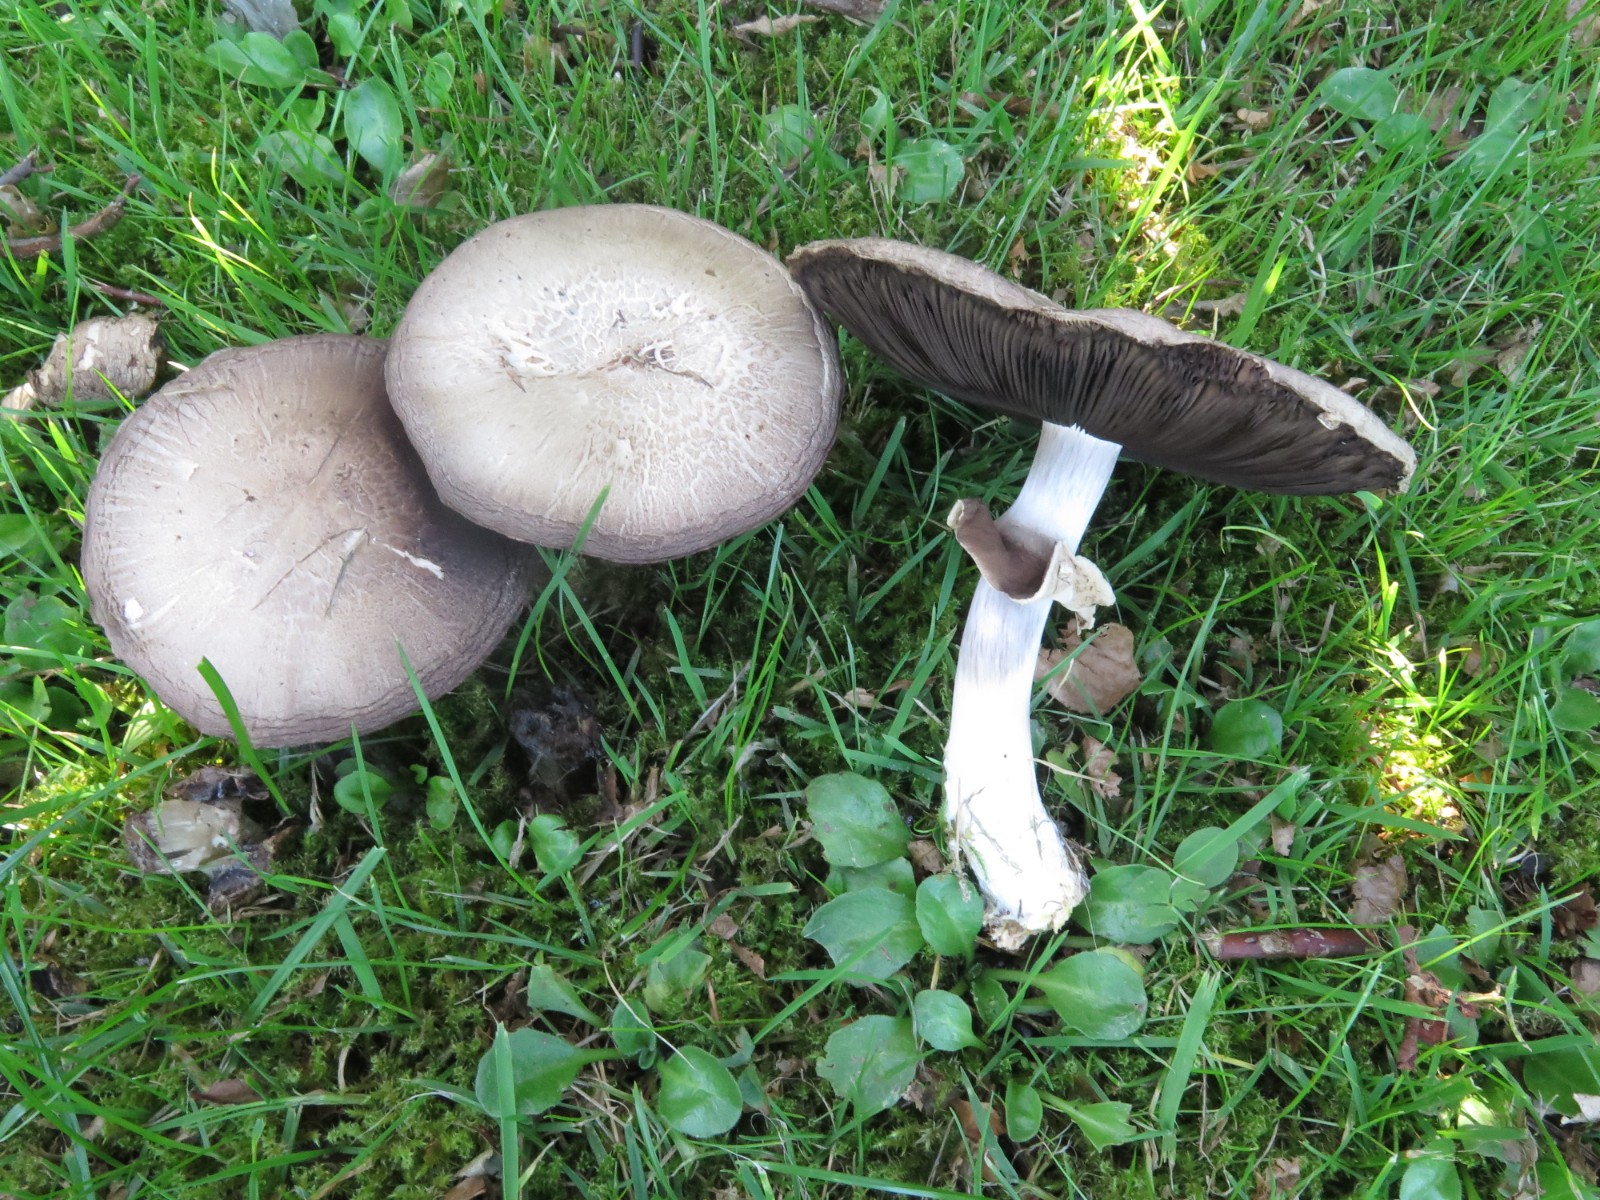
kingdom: Fungi
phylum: Basidiomycota
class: Agaricomycetes
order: Agaricales
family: Agaricaceae
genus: Agaricus
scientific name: Agaricus
